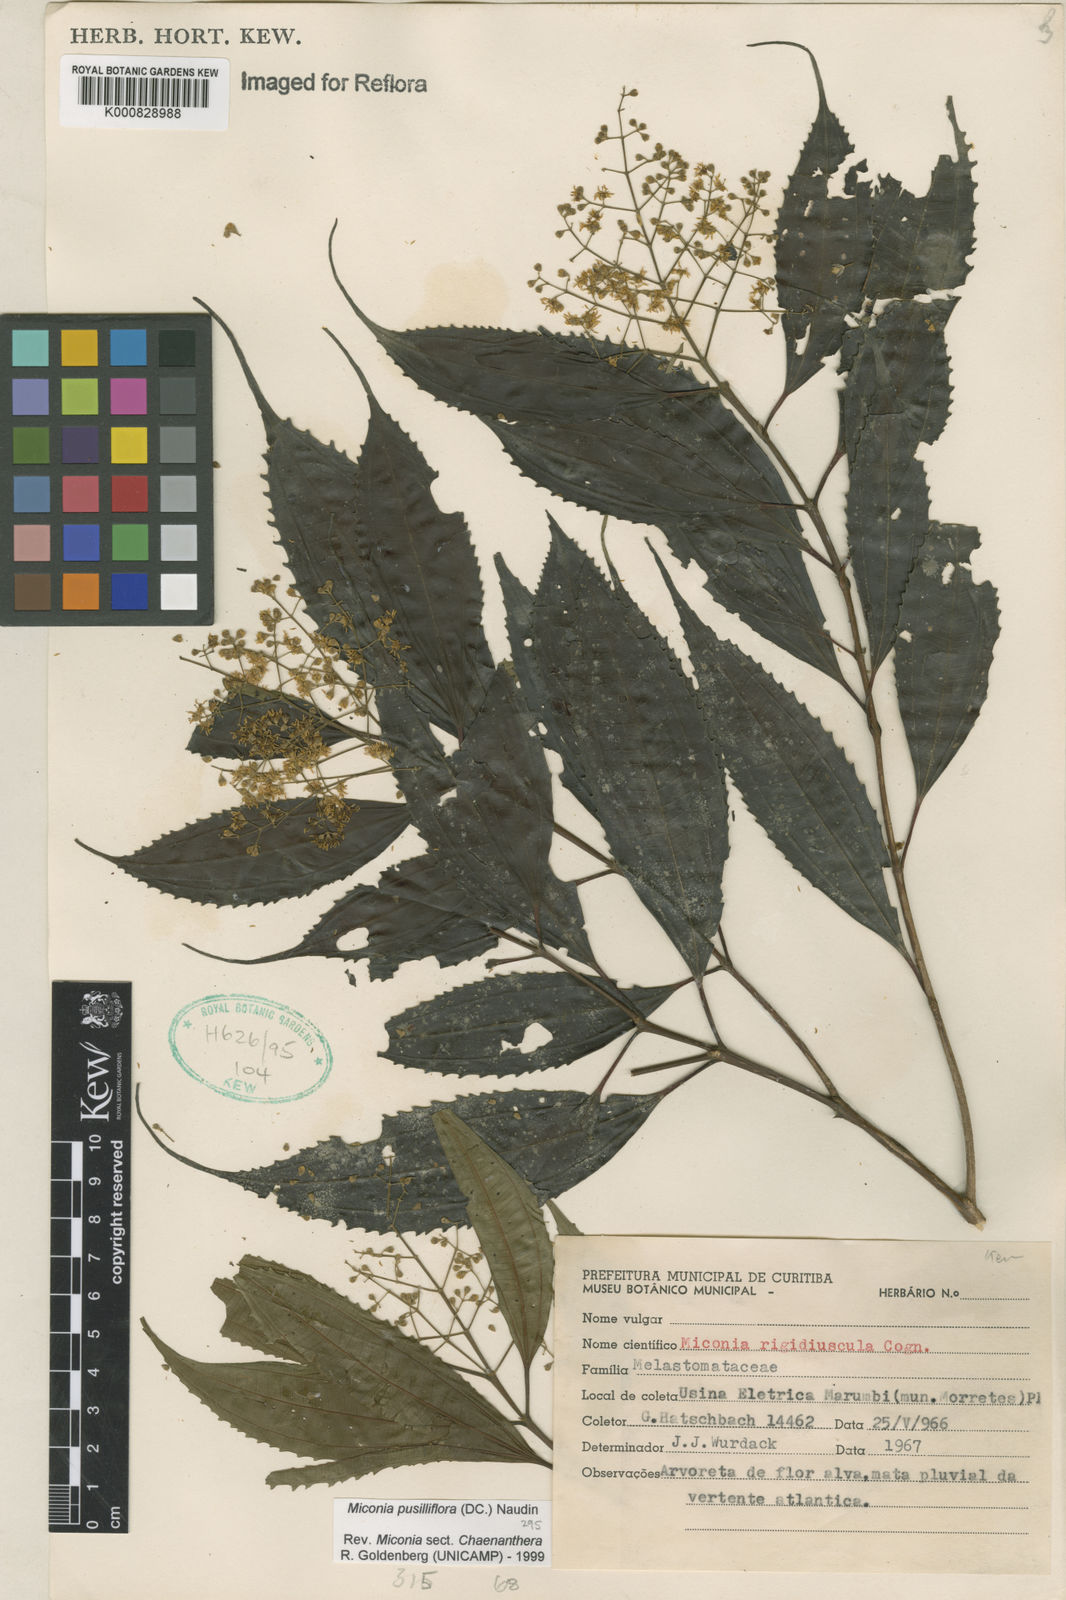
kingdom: Plantae
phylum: Tracheophyta
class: Magnoliopsida
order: Myrtales
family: Melastomataceae
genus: Miconia
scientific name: Miconia pusilliflora
